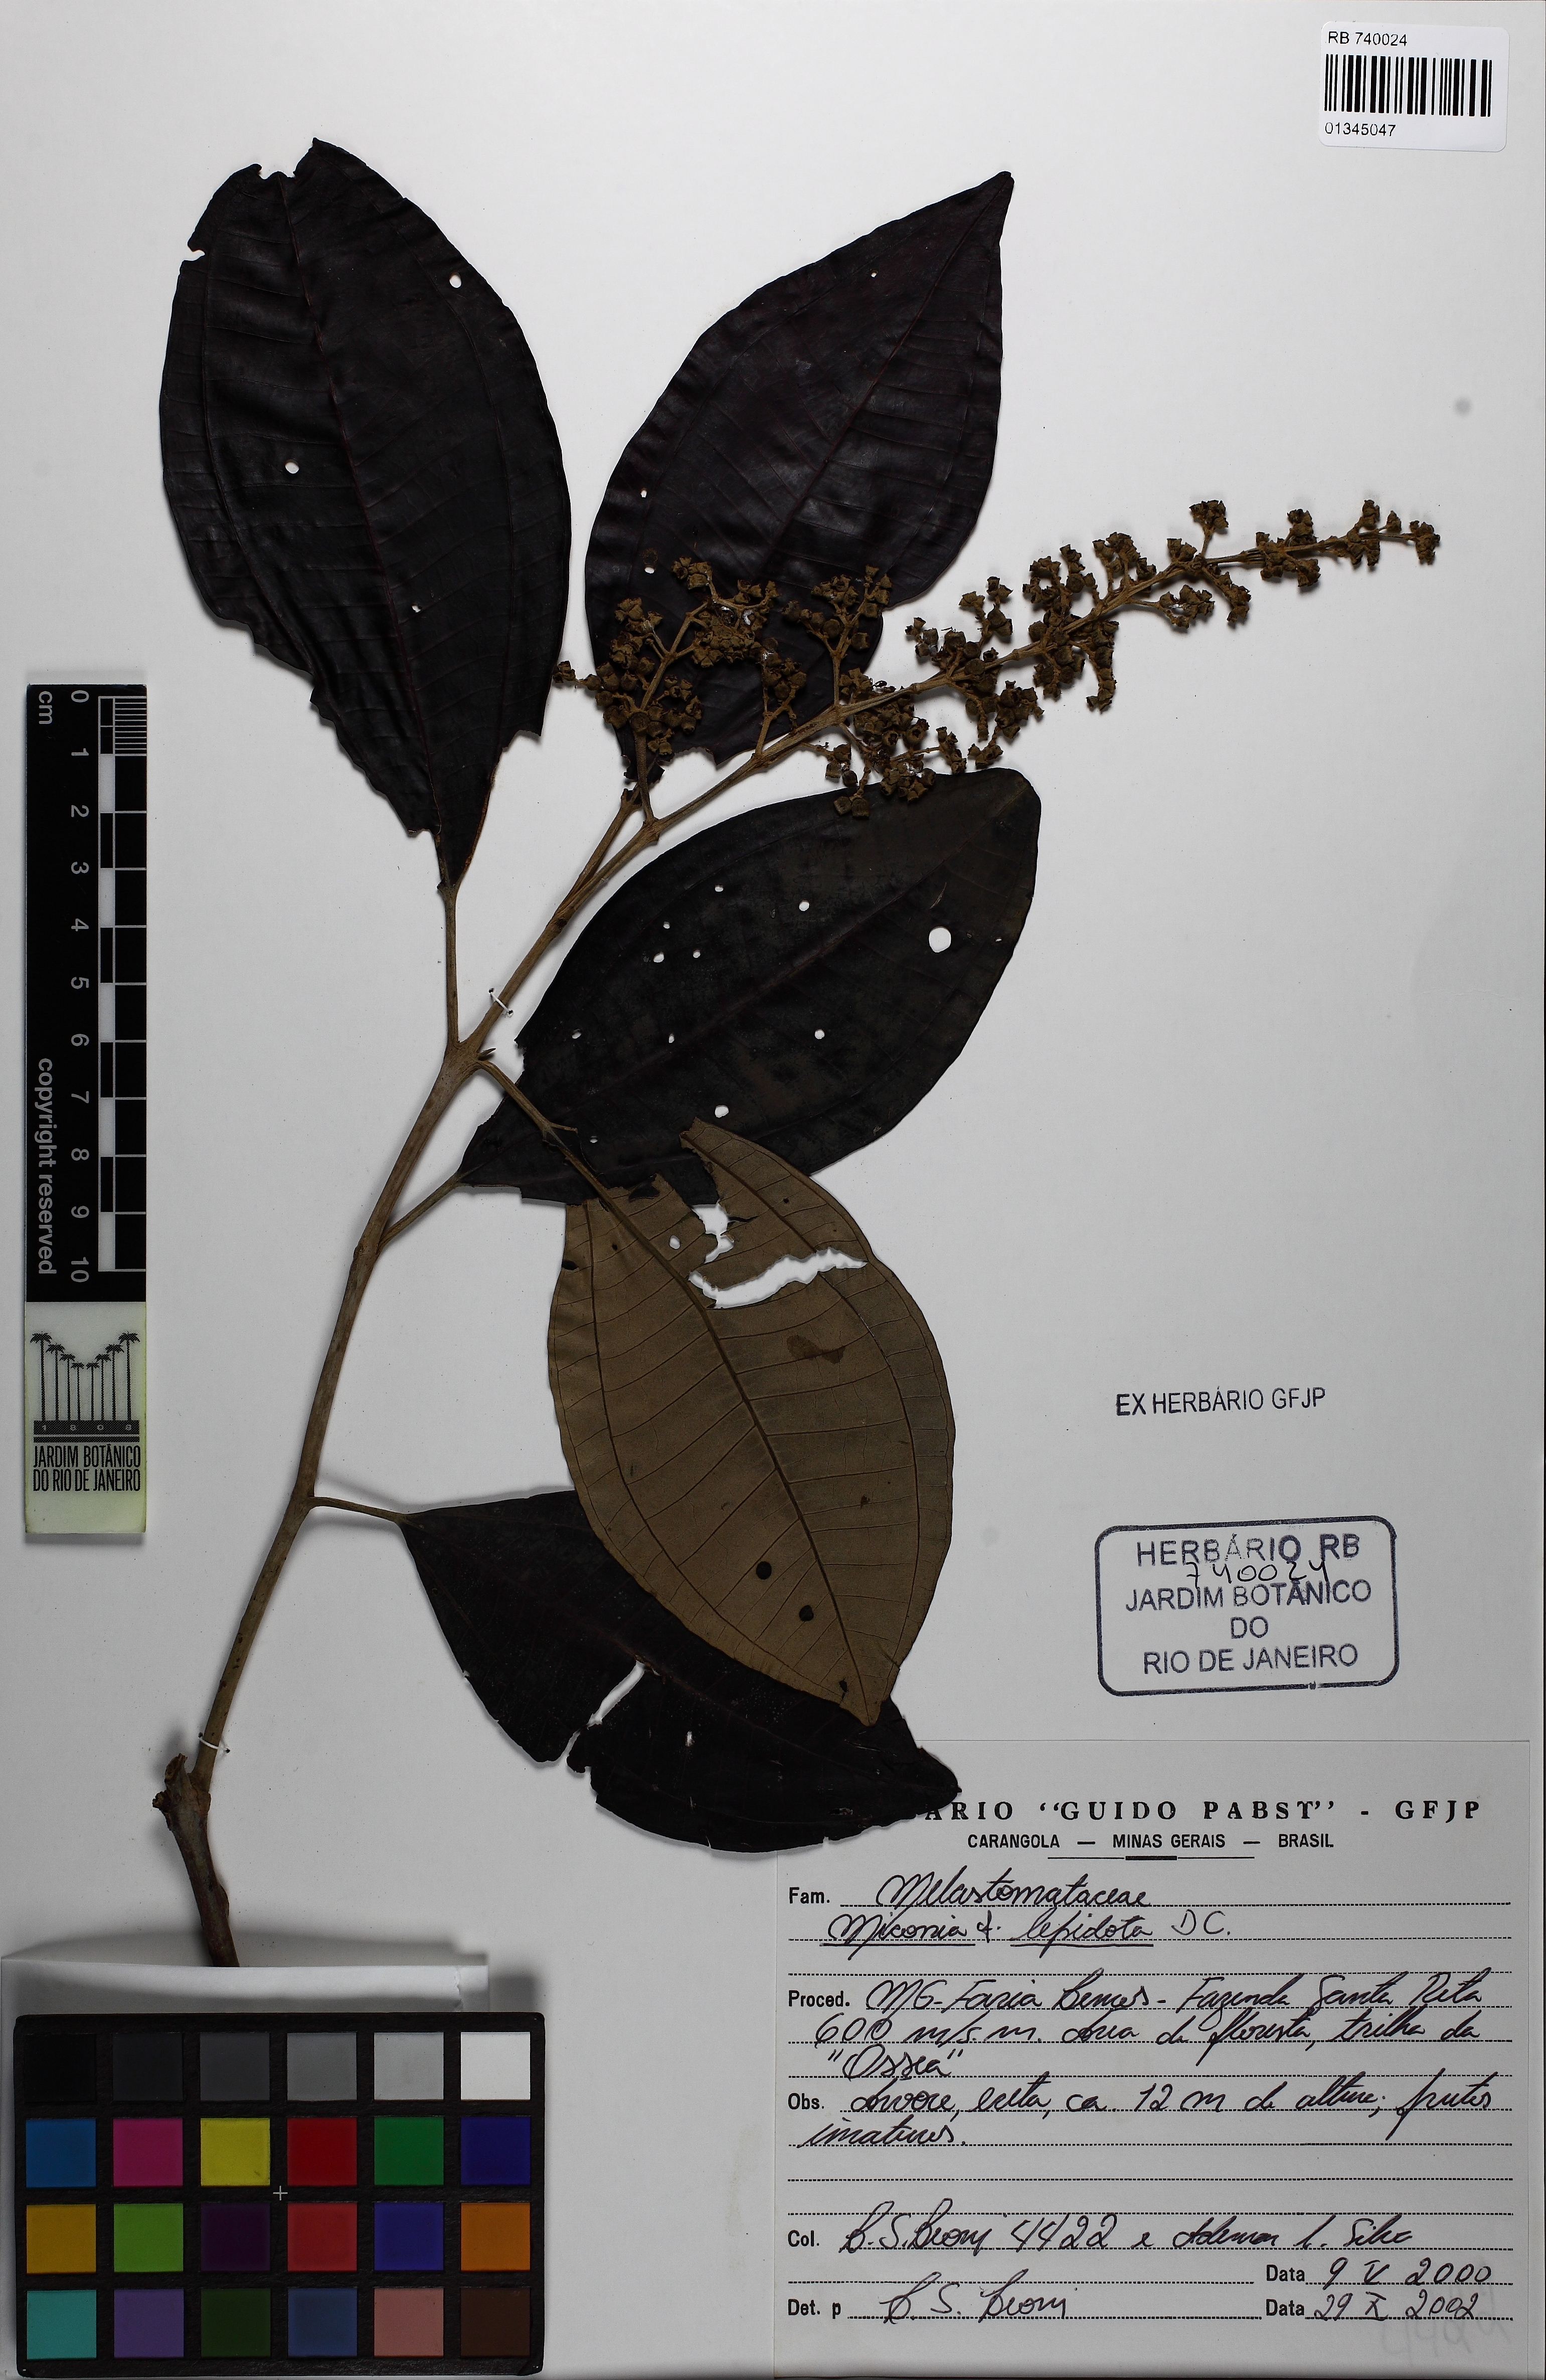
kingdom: Plantae
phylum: Tracheophyta
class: Magnoliopsida
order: Myrtales
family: Melastomataceae
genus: Miconia
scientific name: Miconia lepidota
